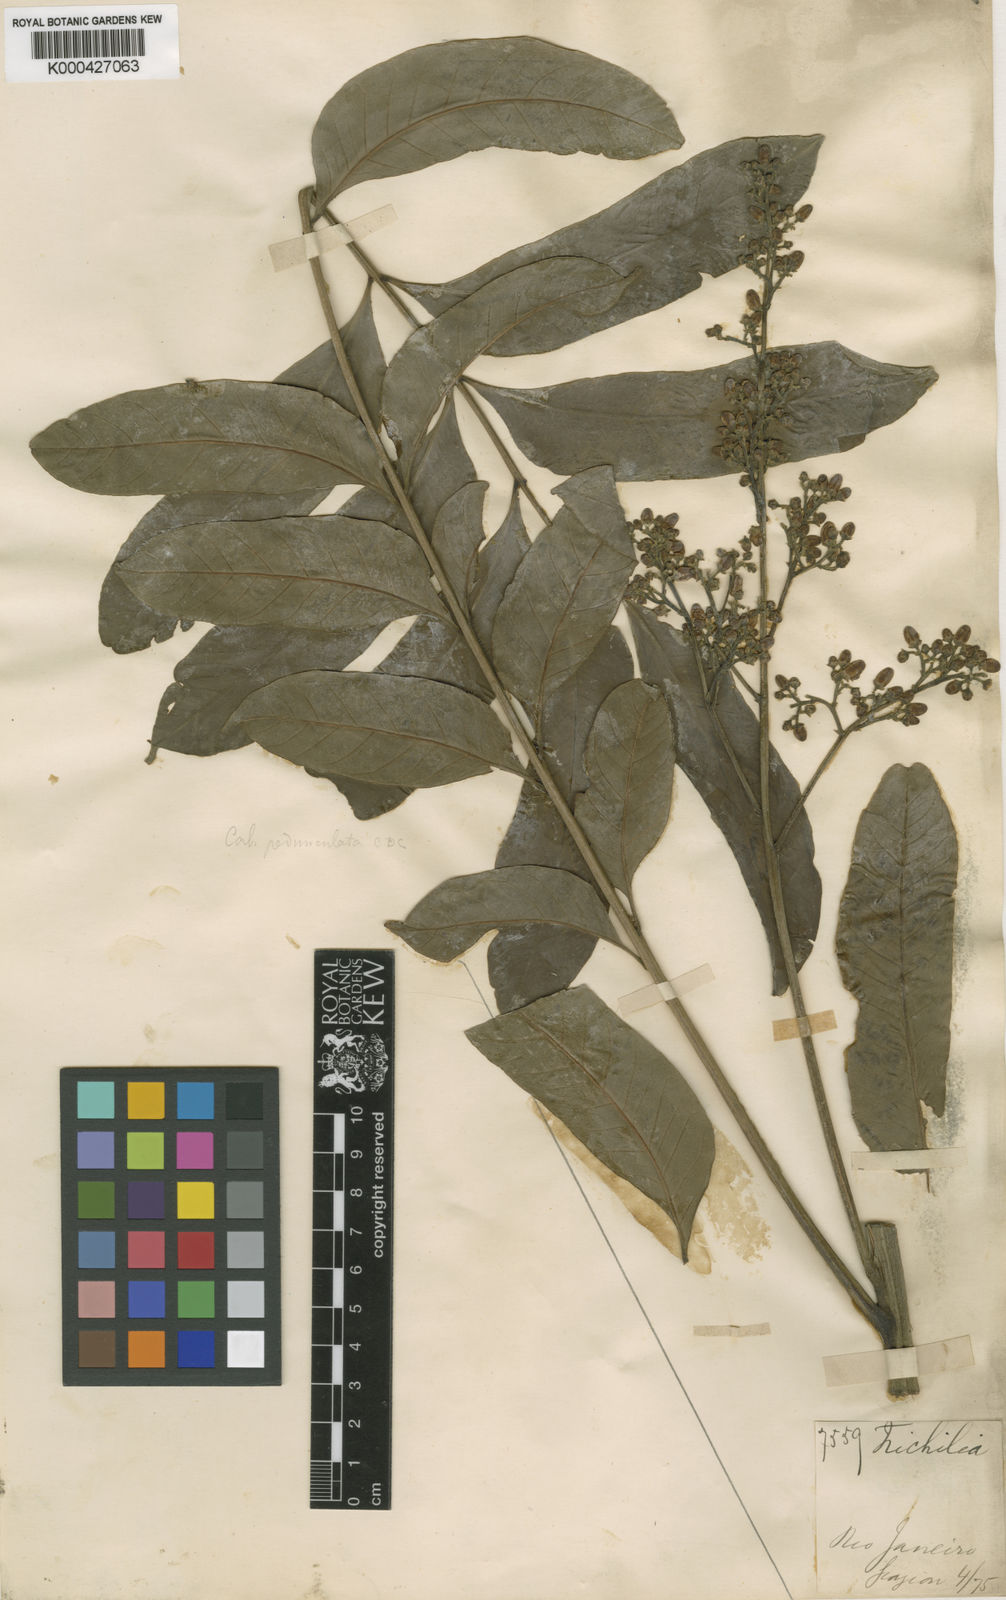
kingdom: Plantae
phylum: Tracheophyta
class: Magnoliopsida
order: Sapindales
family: Meliaceae
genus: Cabralea
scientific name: Cabralea canjerana
